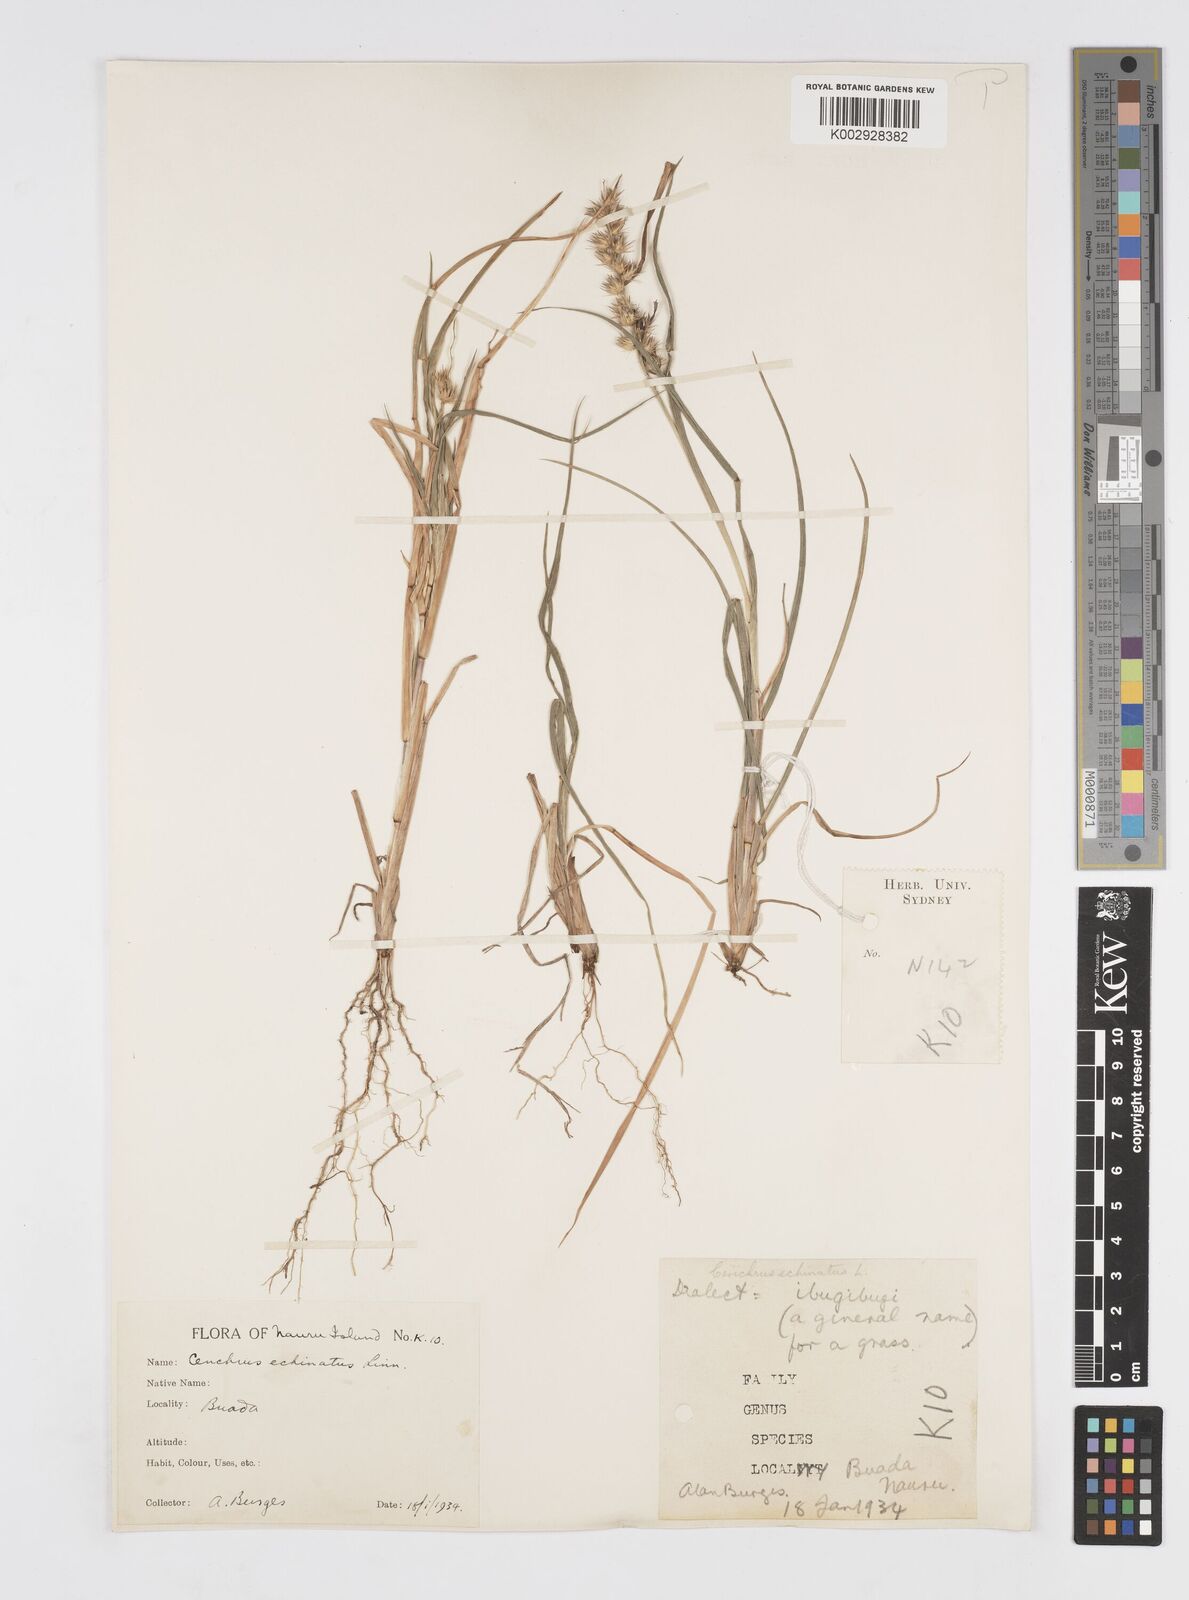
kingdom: Plantae
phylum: Tracheophyta
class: Liliopsida
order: Poales
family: Poaceae
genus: Cenchrus
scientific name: Cenchrus echinatus
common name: Southern sandbur
